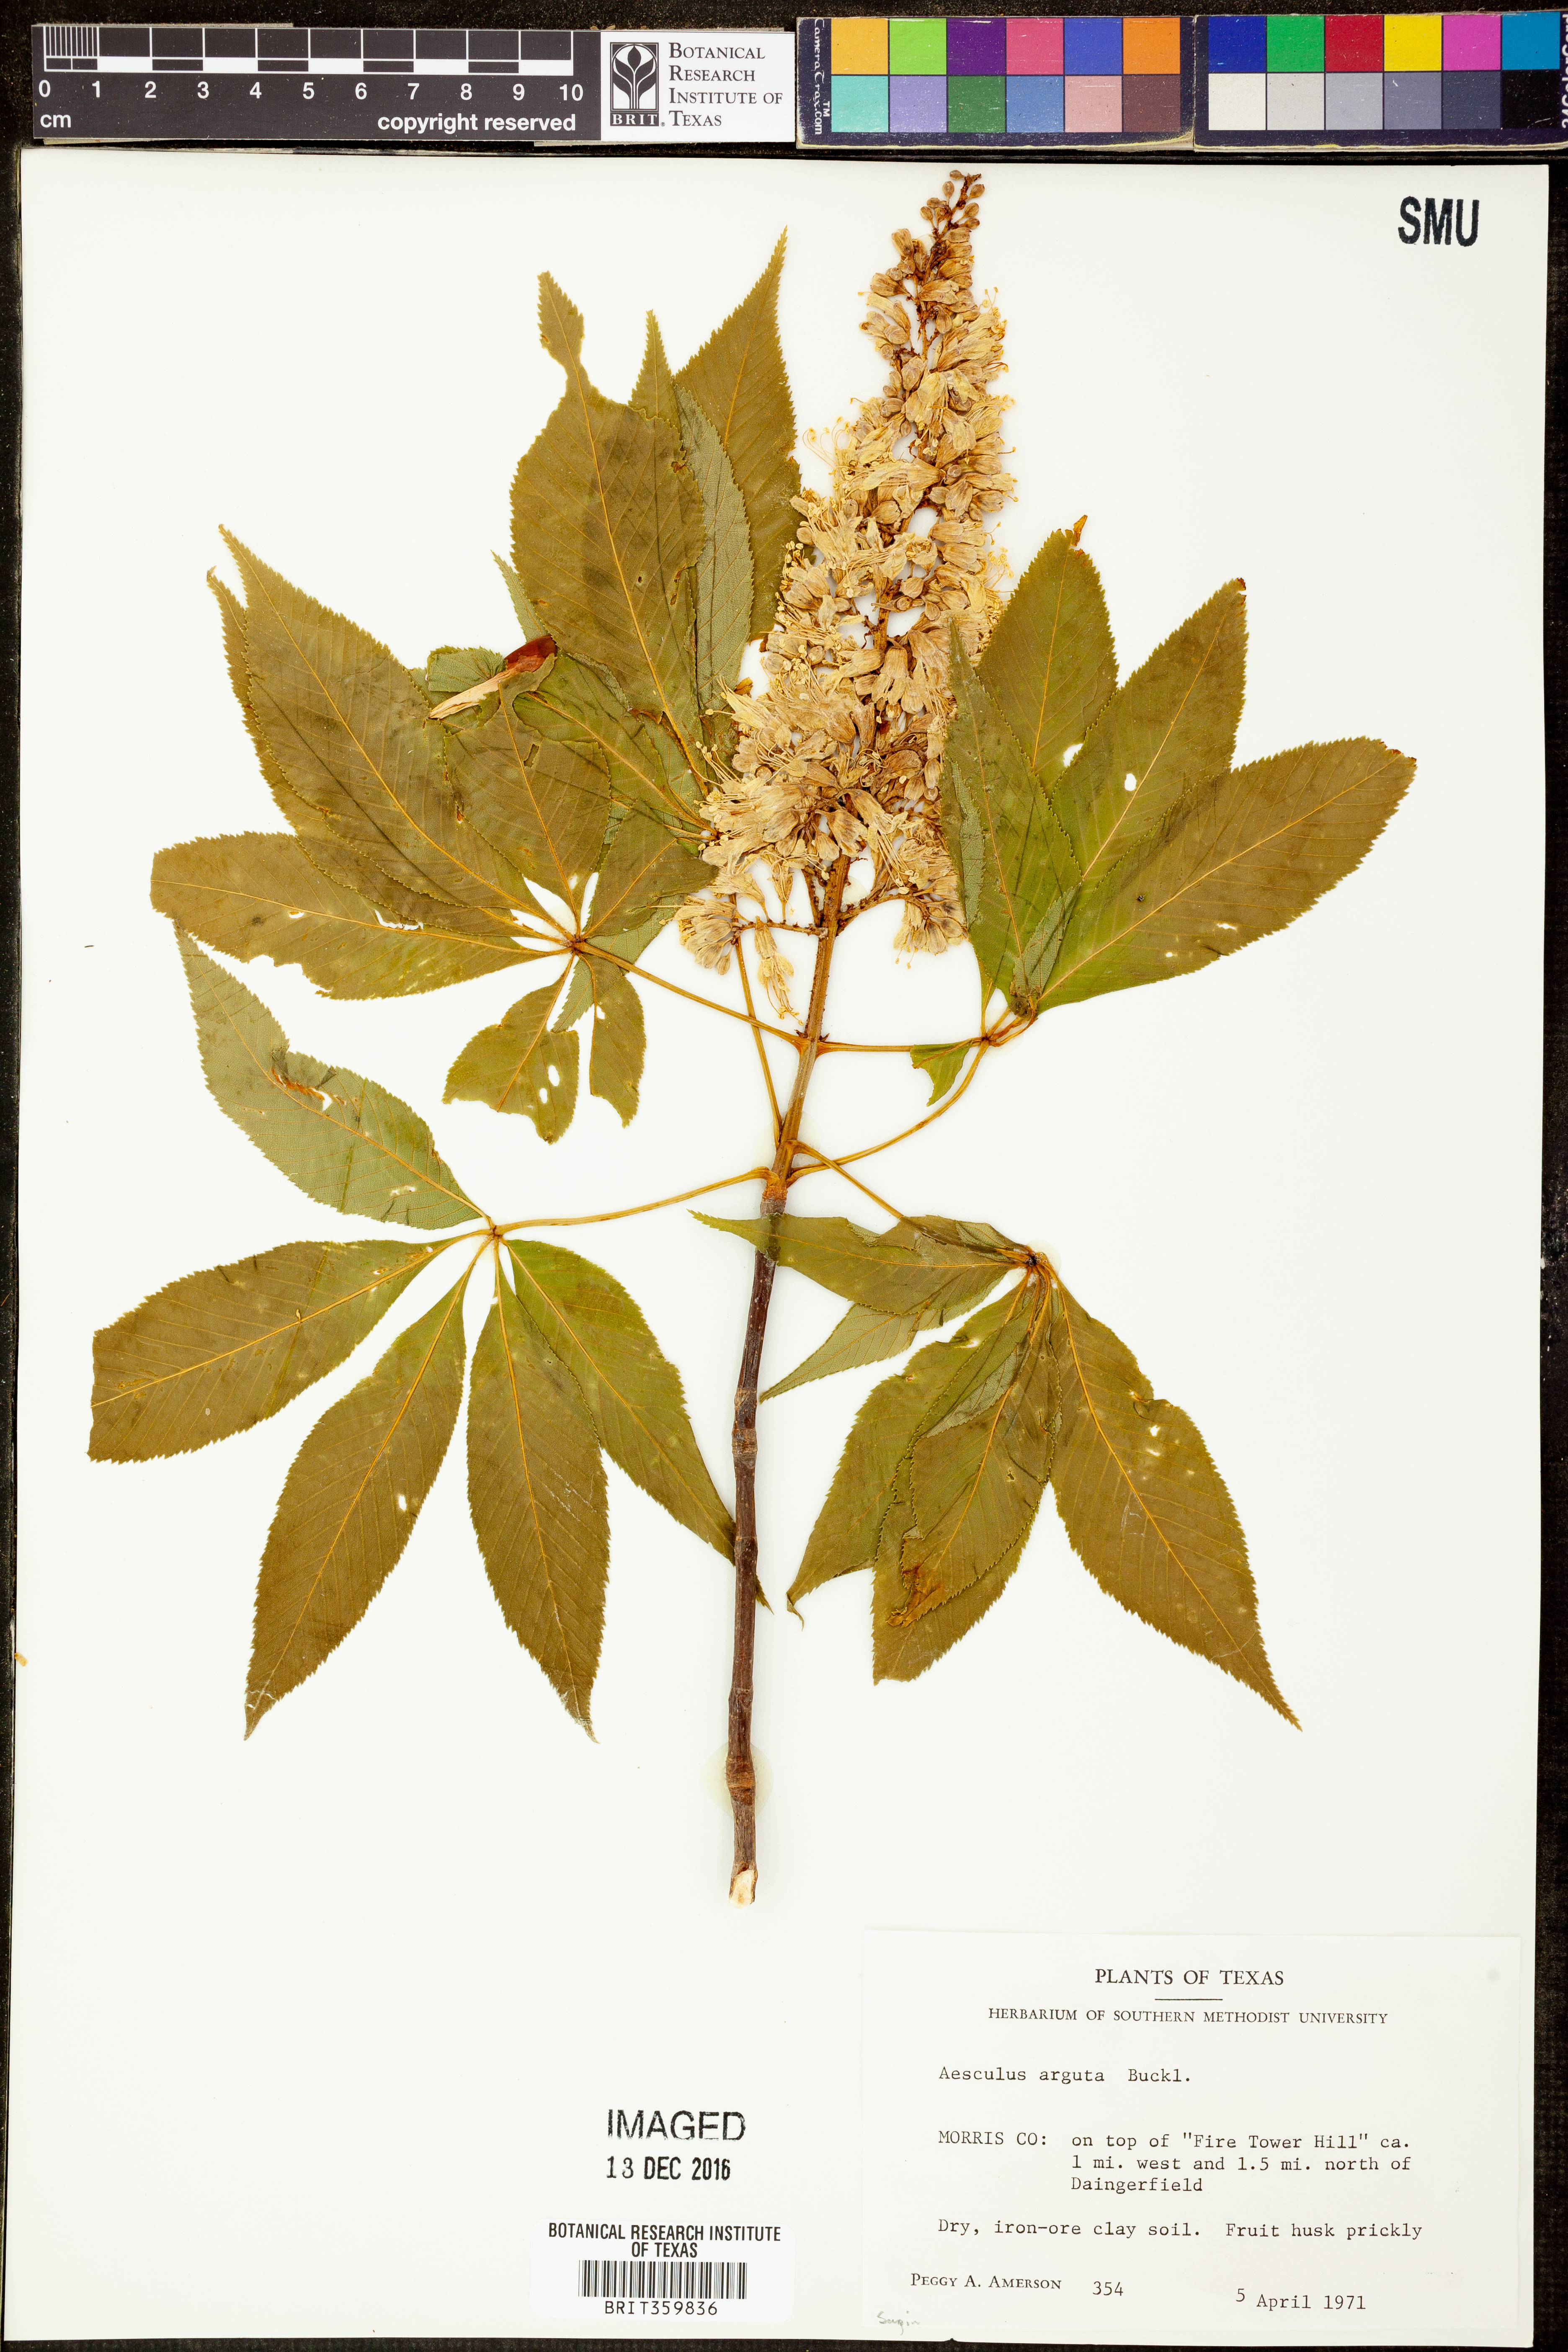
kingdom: Plantae
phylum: Tracheophyta
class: Magnoliopsida
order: Sapindales
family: Sapindaceae
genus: Aesculus
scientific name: Aesculus glabra
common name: Ohio buckeye
